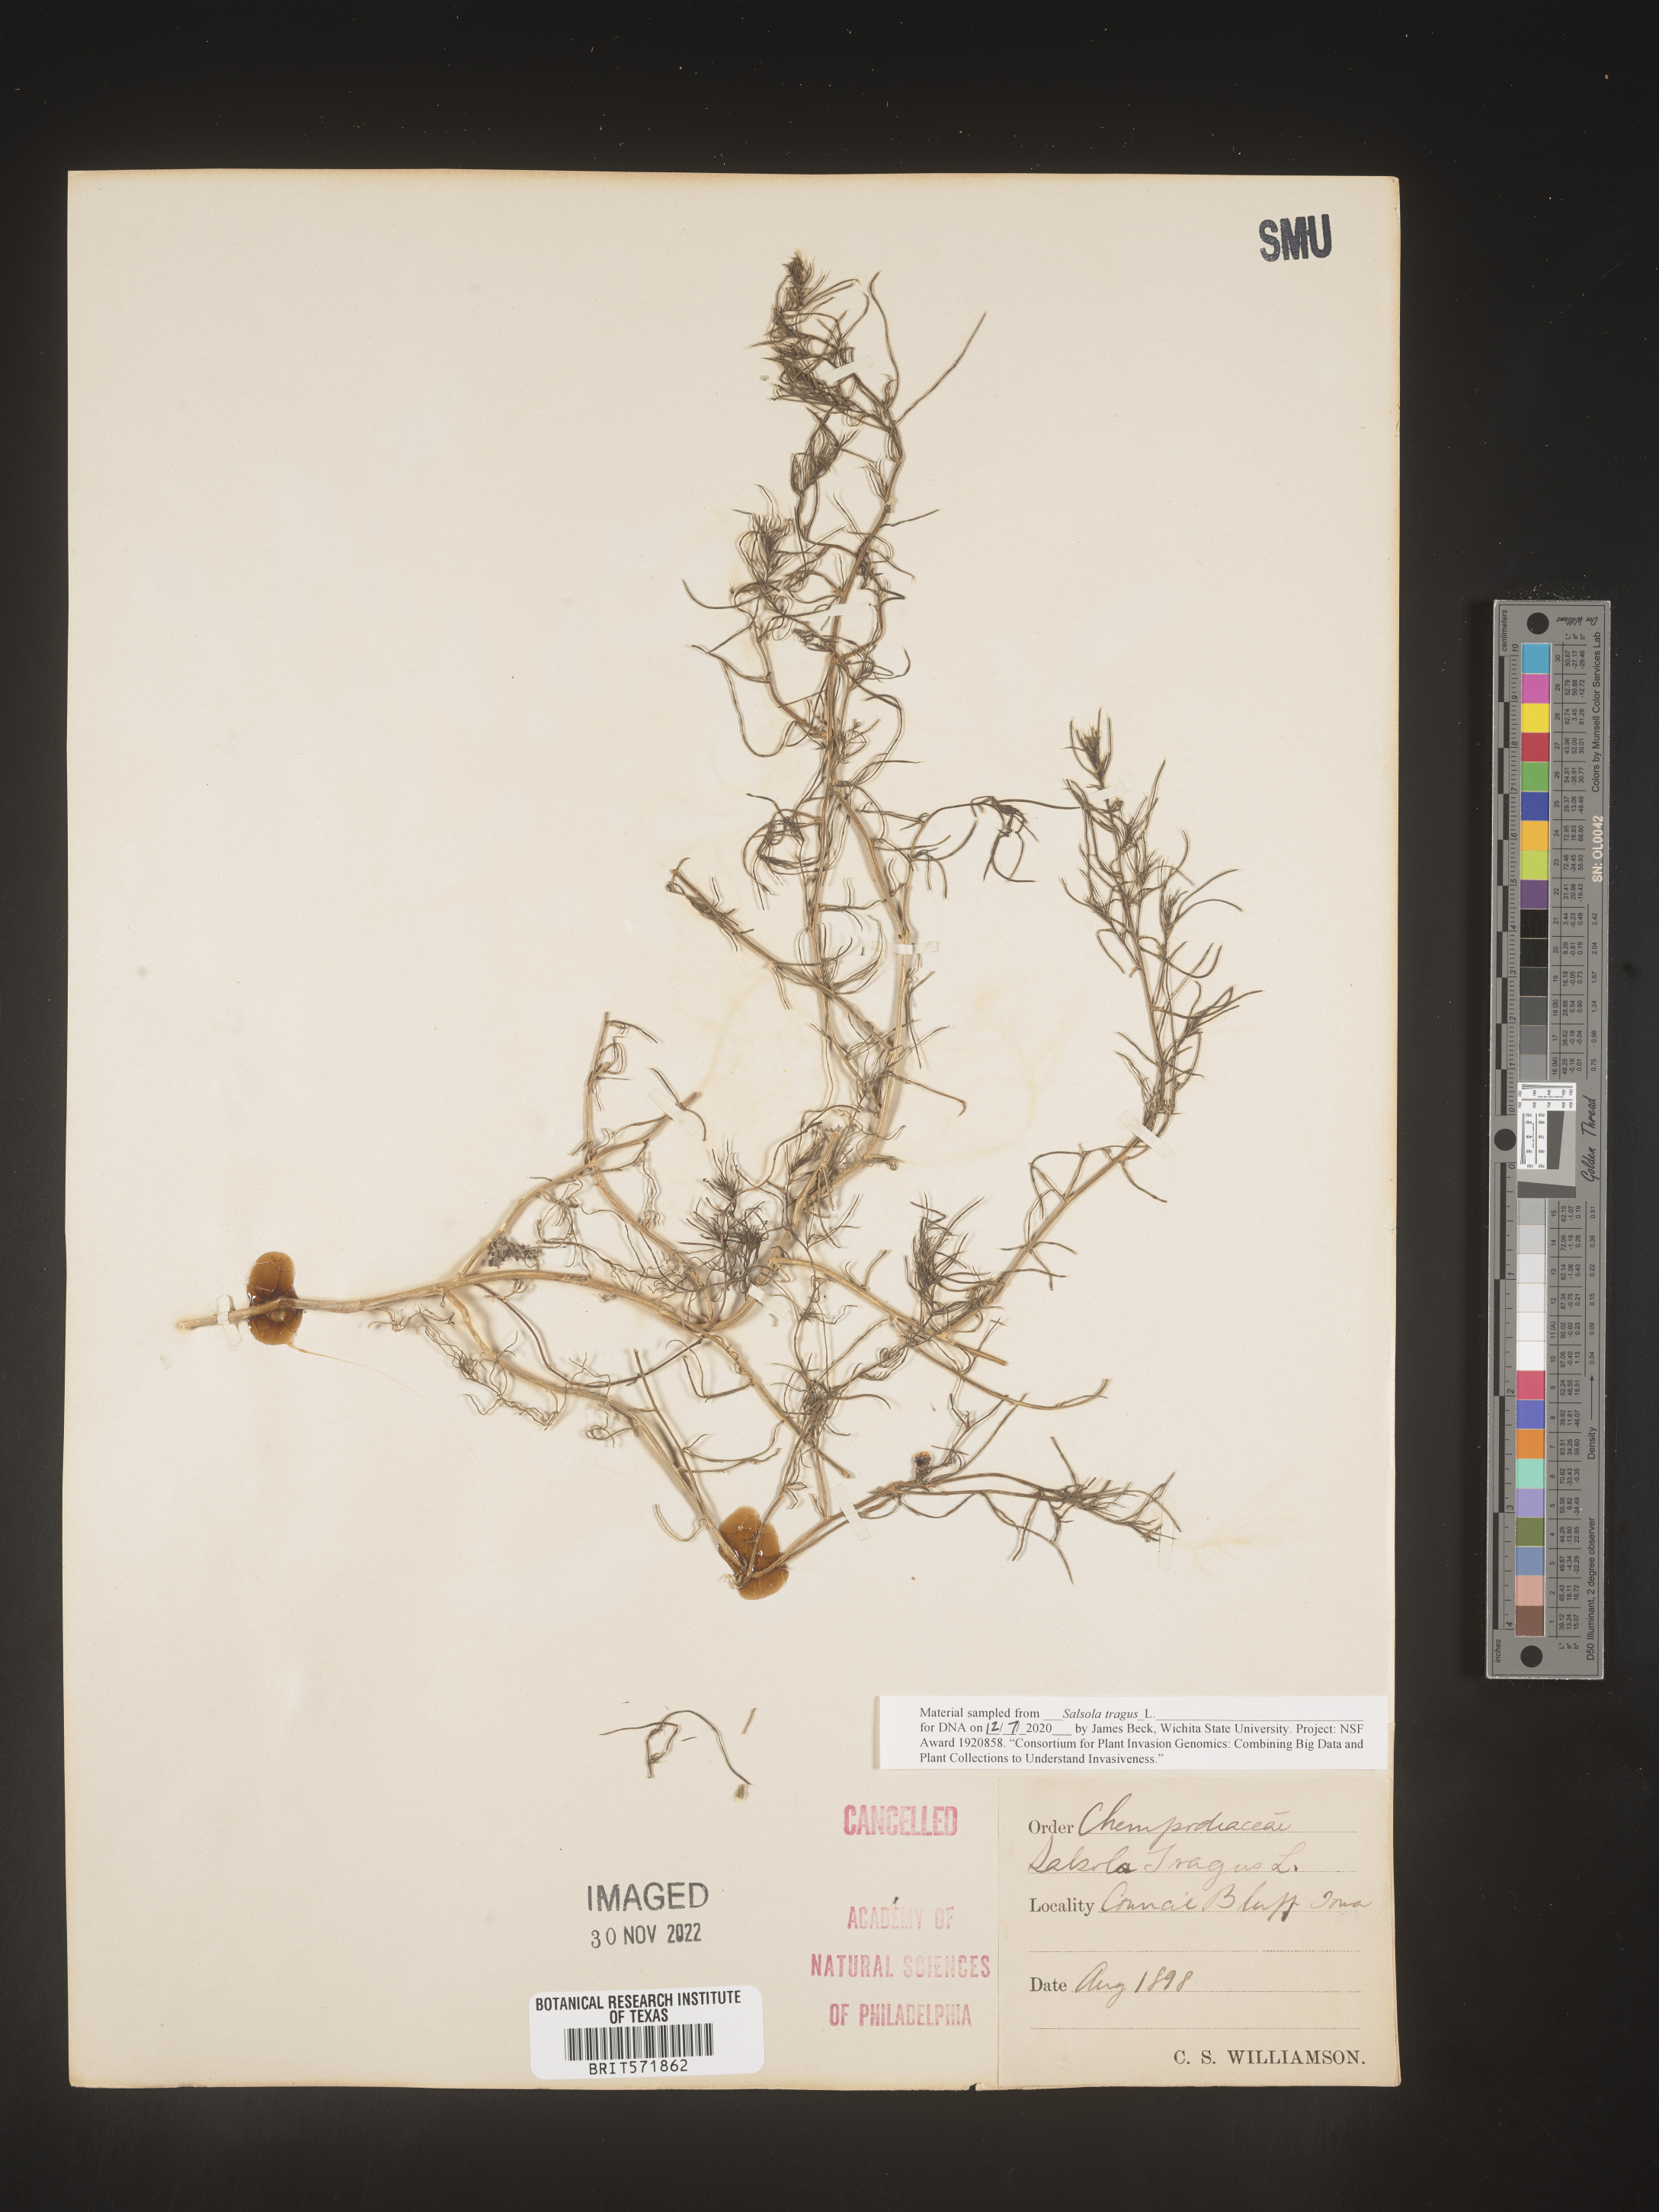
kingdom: Plantae
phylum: Tracheophyta
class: Magnoliopsida
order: Caryophyllales
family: Amaranthaceae
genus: Salsola
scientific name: Salsola tragus
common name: Prickly russian thistle
